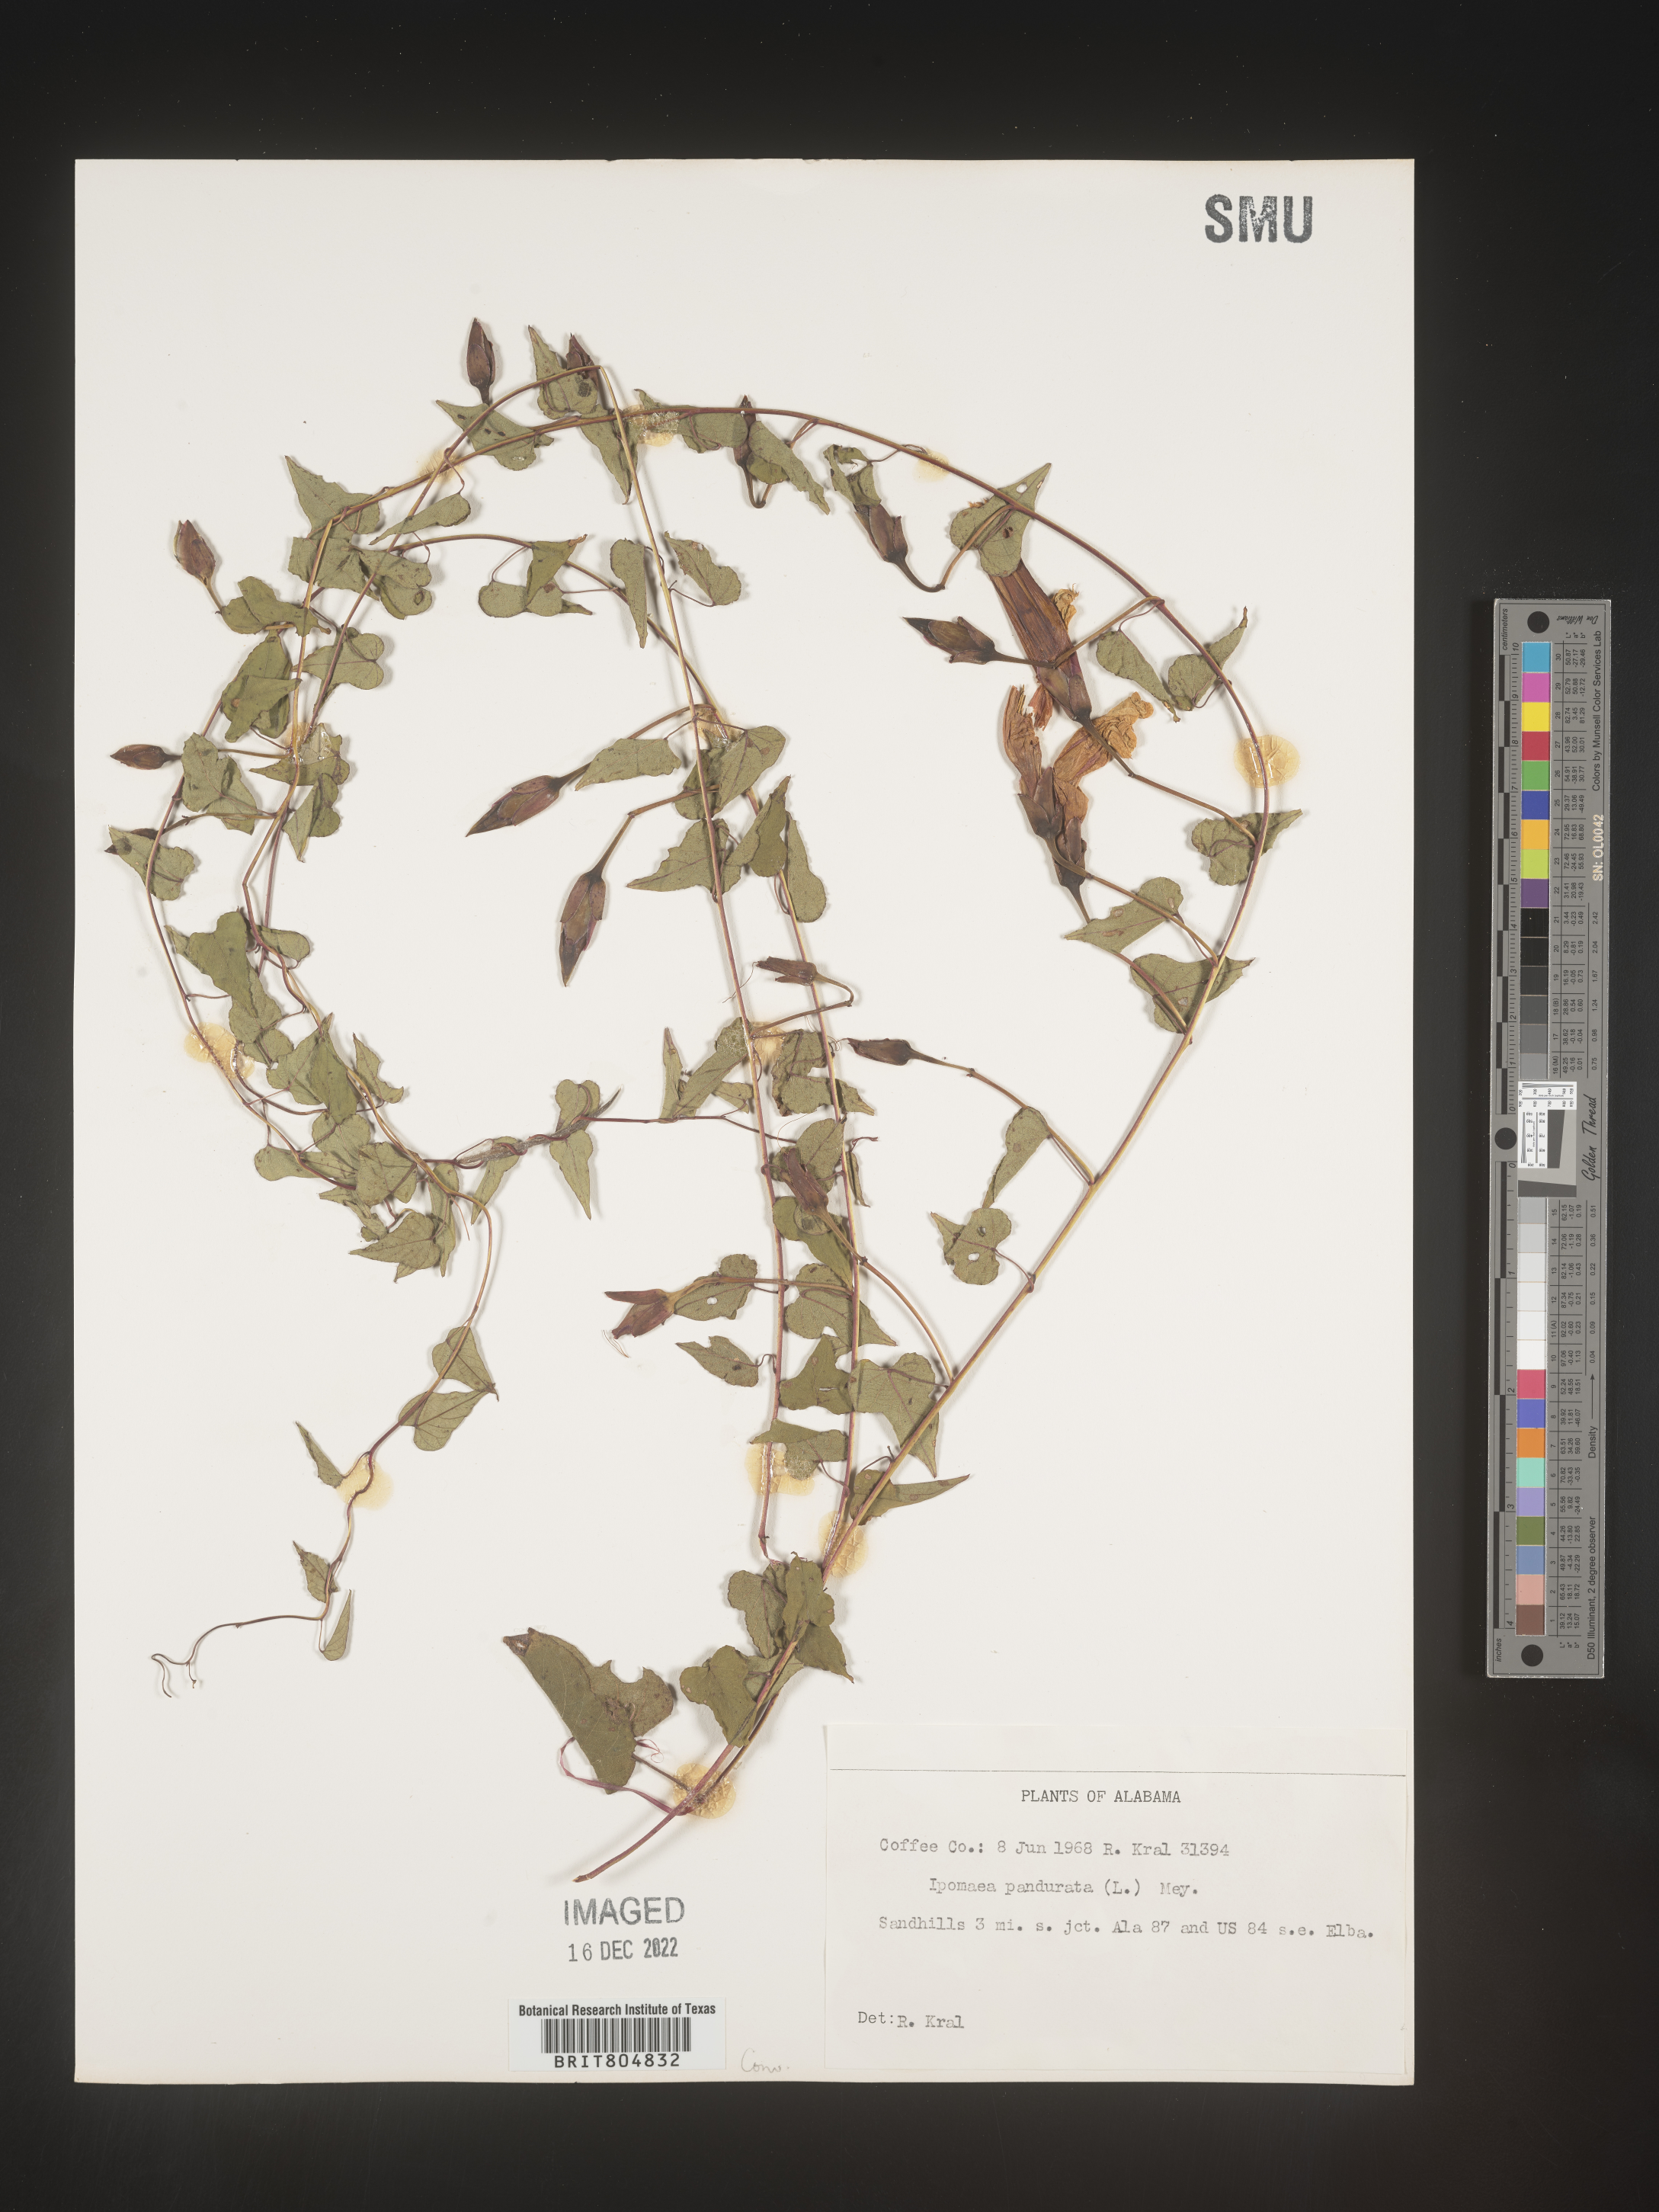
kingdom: Plantae
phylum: Tracheophyta
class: Magnoliopsida
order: Solanales
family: Convolvulaceae
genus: Ipomoea
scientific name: Ipomoea pandurata
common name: Man-of-the-earth
